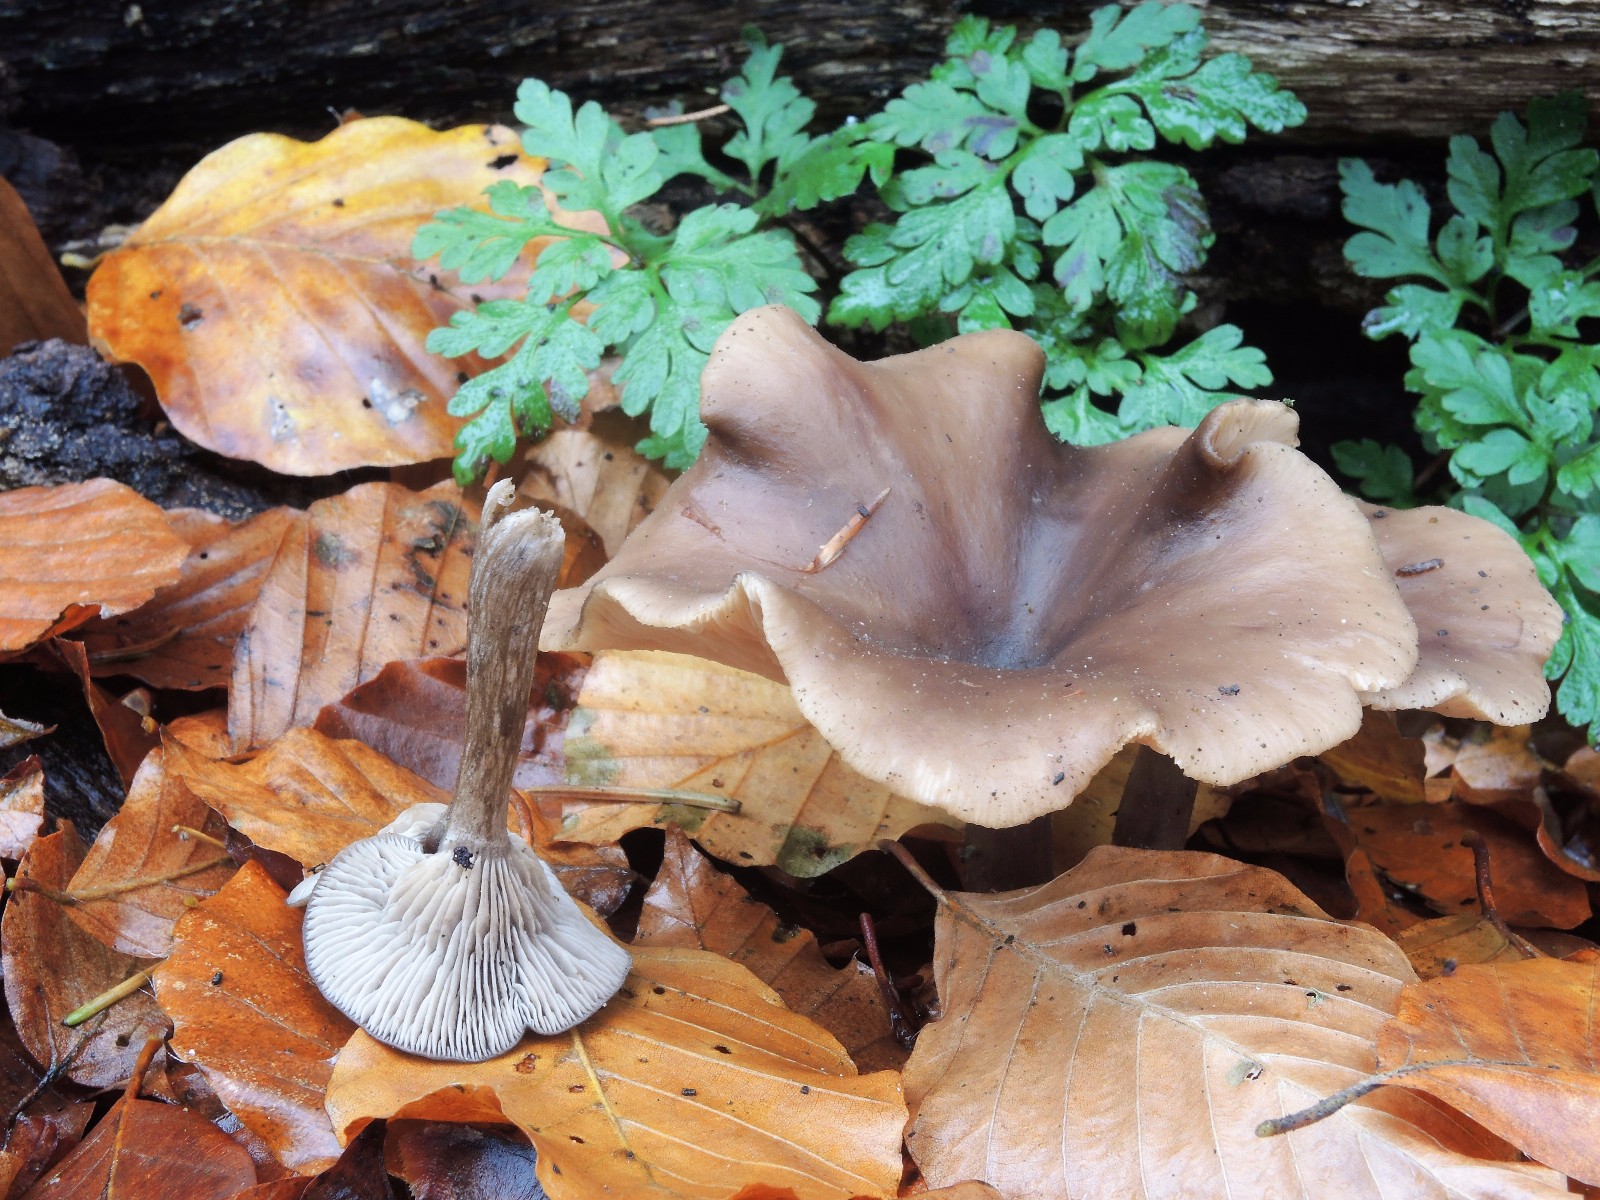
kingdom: Fungi
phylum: Basidiomycota
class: Agaricomycetes
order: Agaricales
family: Pseudoclitocybaceae
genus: Pseudoclitocybe
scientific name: Pseudoclitocybe cyathiformis
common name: almindelig bægertragthat
